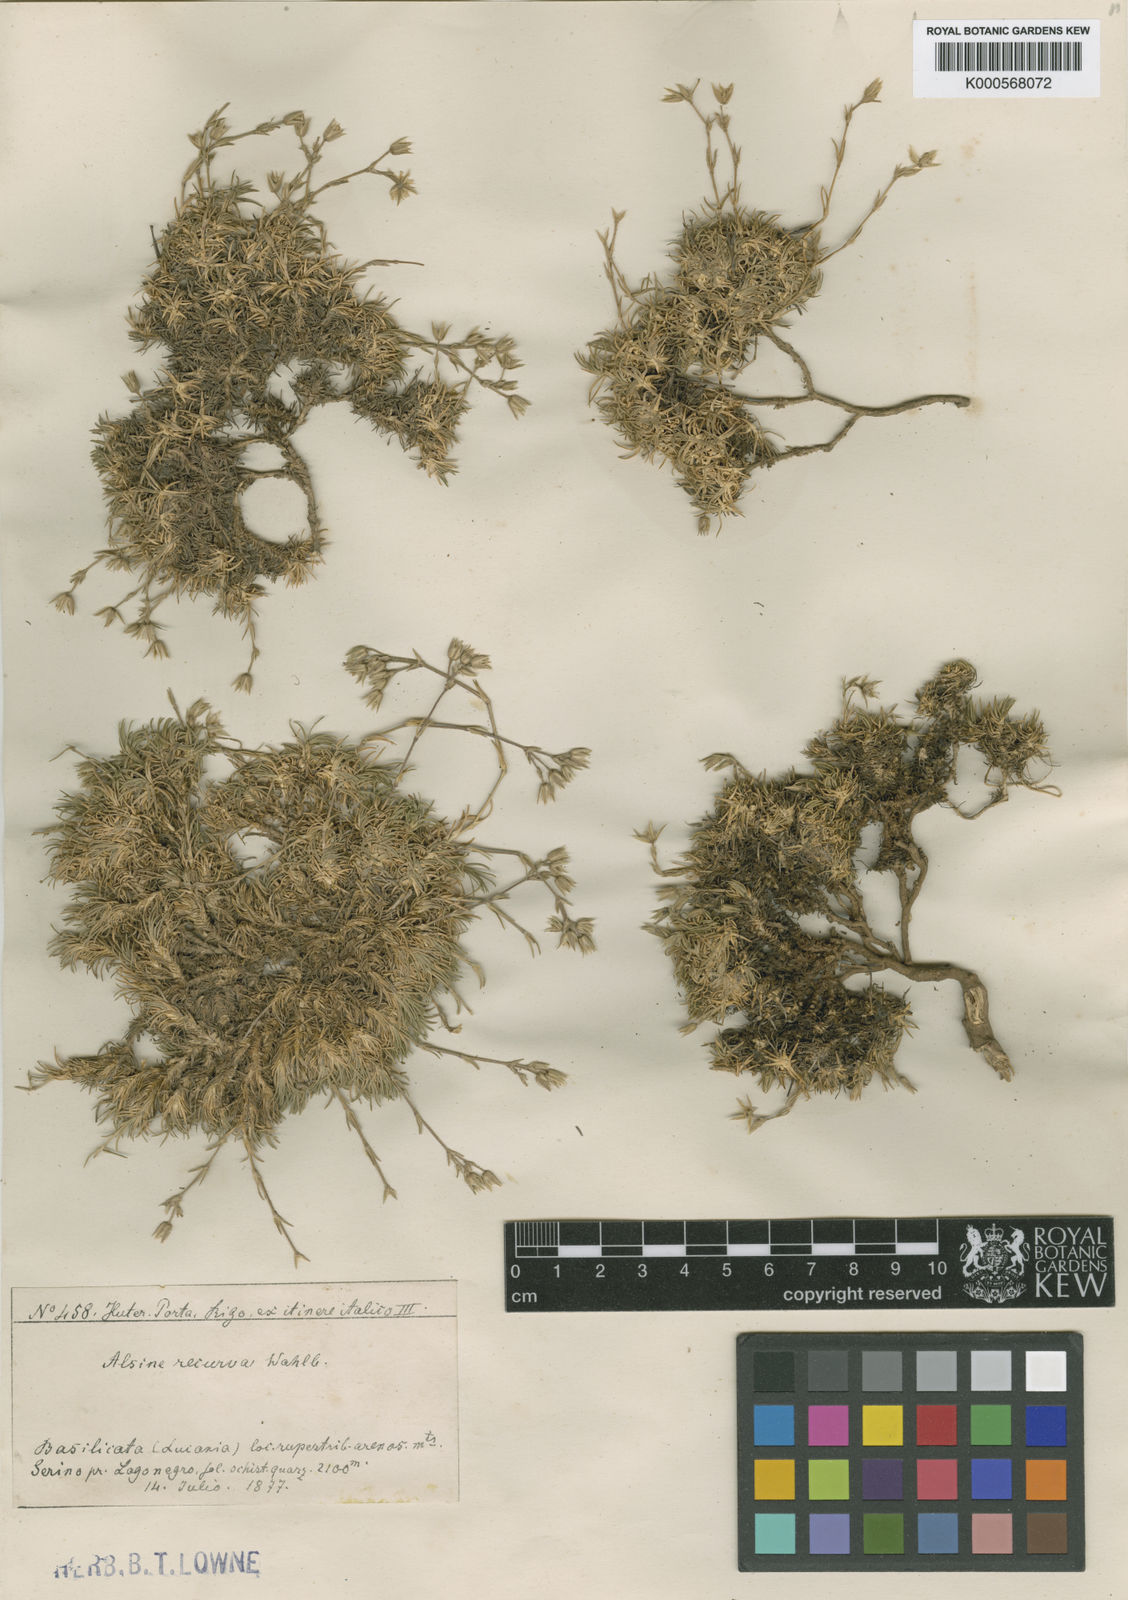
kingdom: Plantae
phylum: Tracheophyta
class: Magnoliopsida
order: Caryophyllales
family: Caryophyllaceae
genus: Minuartia
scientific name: Minuartia recurva
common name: Recurved sandwort
